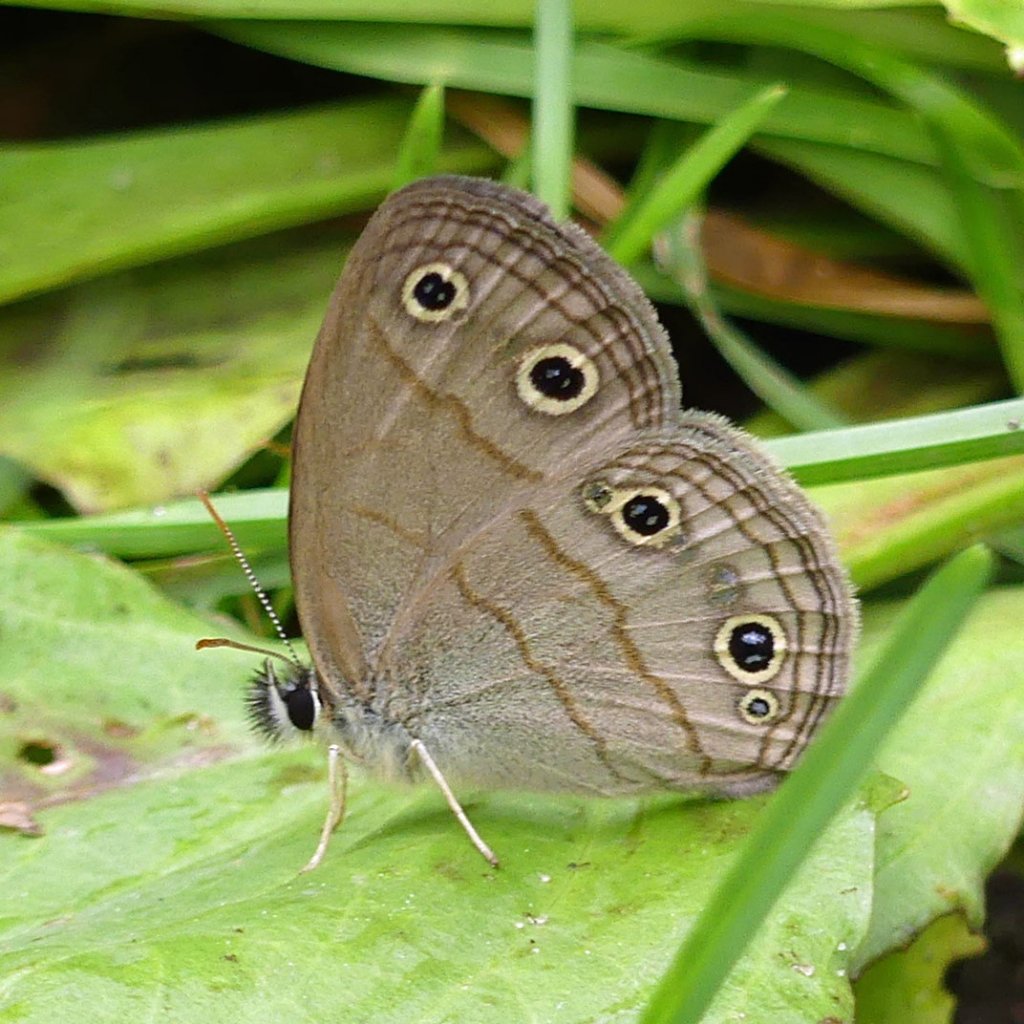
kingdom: Animalia
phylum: Arthropoda
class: Insecta
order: Lepidoptera
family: Nymphalidae
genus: Euptychia
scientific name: Euptychia cymela
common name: Little Wood Satyr
